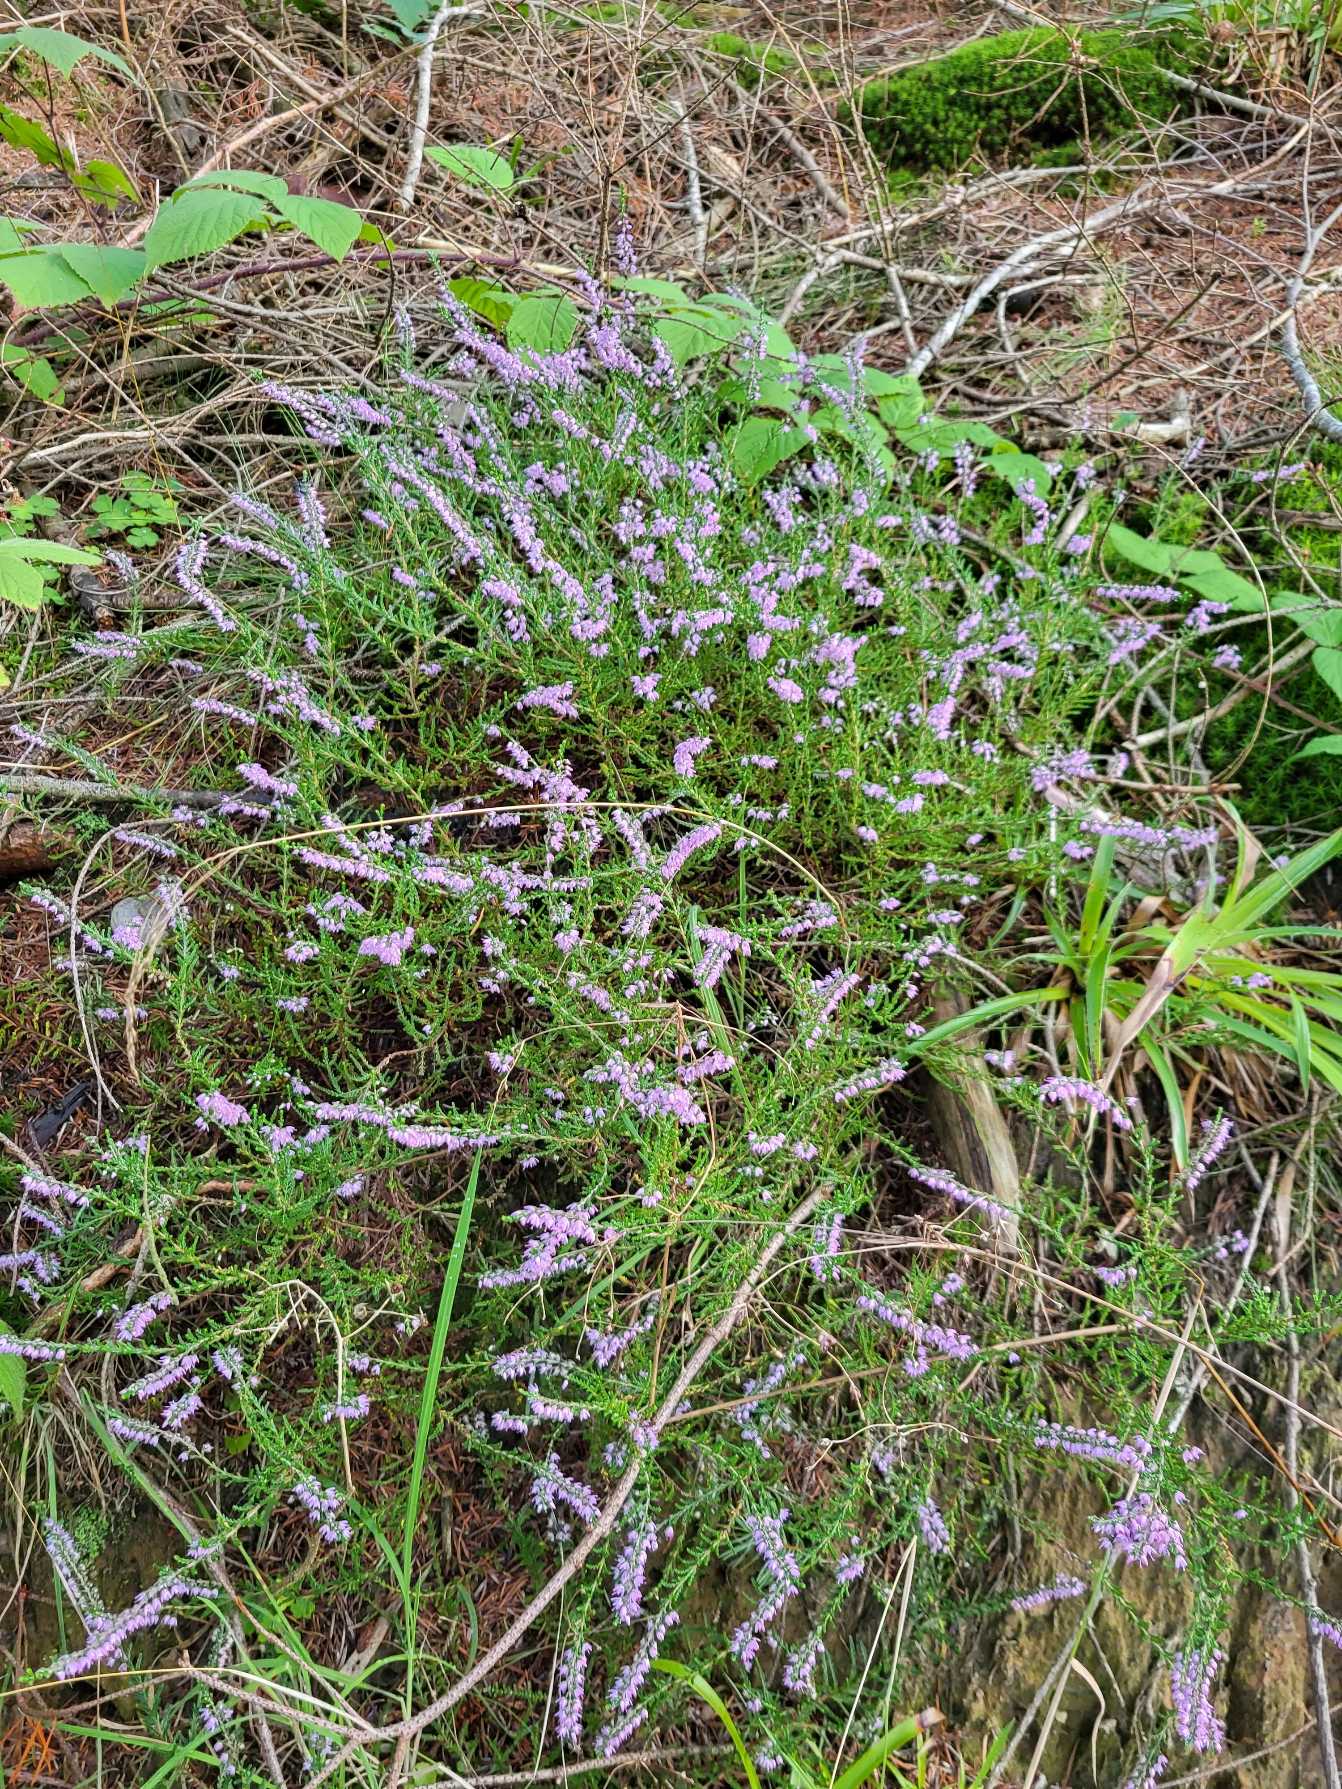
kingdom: Plantae
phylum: Tracheophyta
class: Magnoliopsida
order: Ericales
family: Ericaceae
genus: Calluna
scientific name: Calluna vulgaris
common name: Hedelyng
